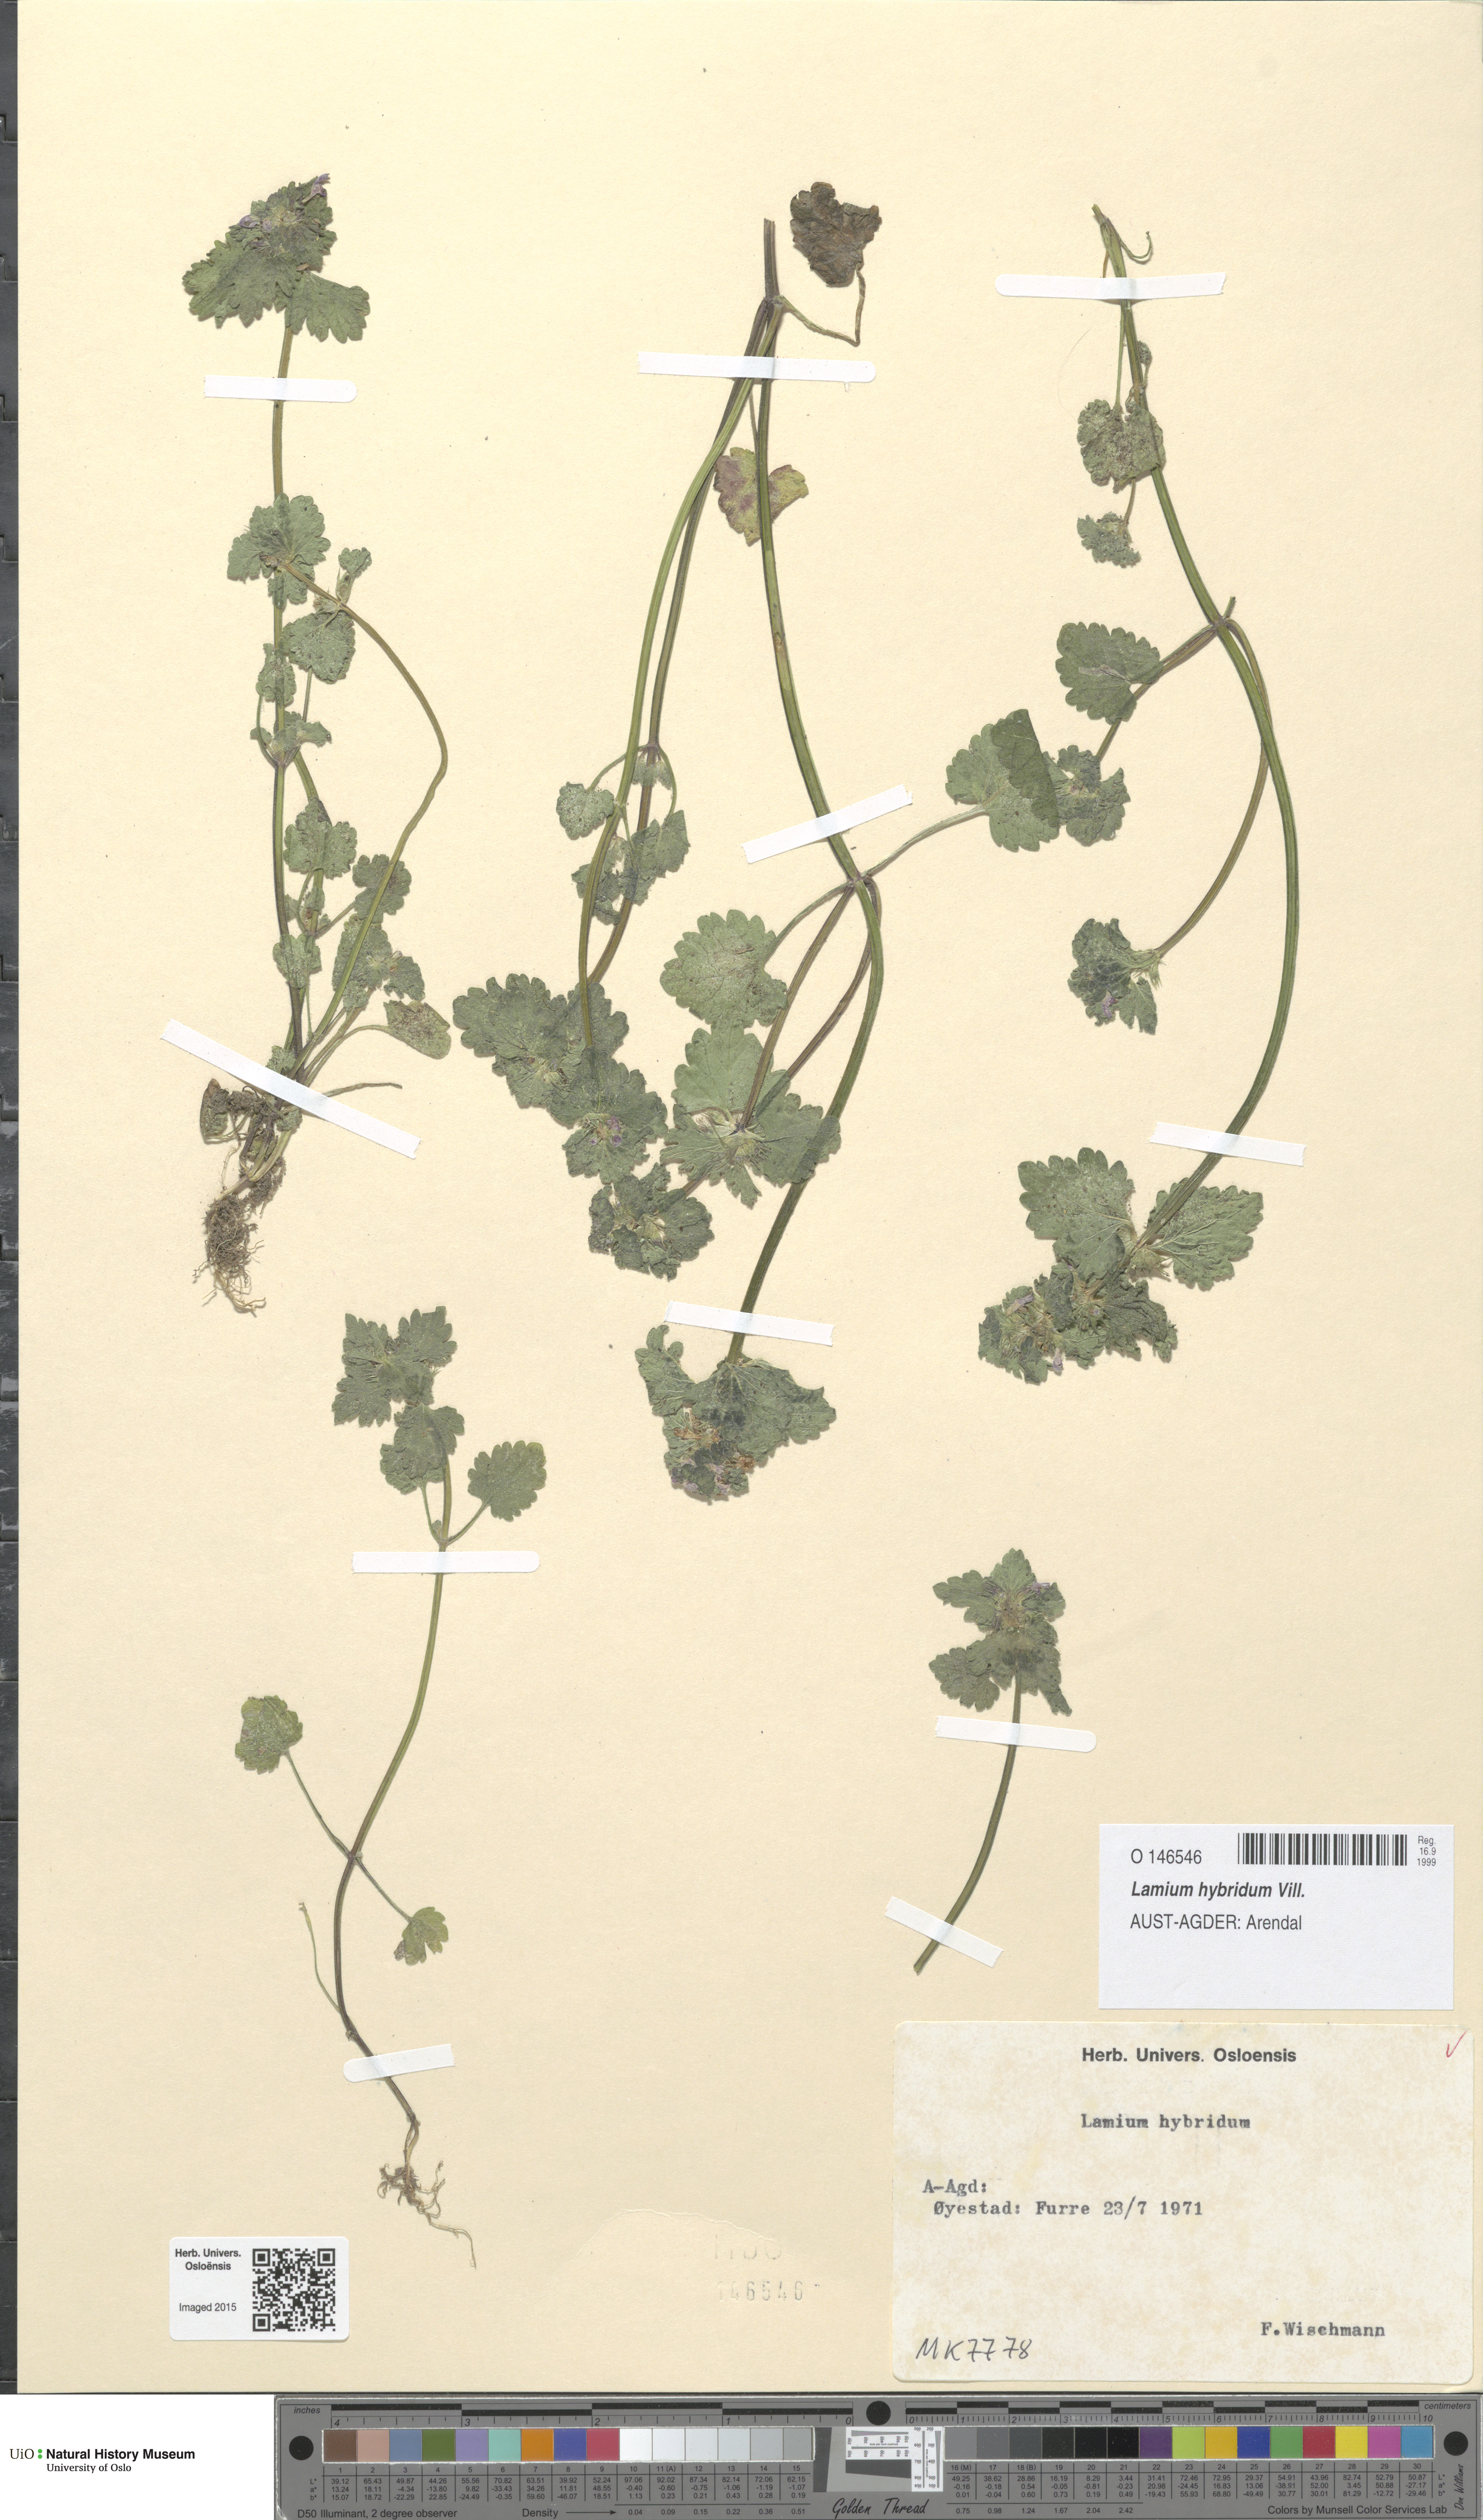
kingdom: Plantae
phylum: Tracheophyta
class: Magnoliopsida
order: Lamiales
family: Lamiaceae
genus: Lamium
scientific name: Lamium hybridum
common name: Cut-leaved dead-nettle
